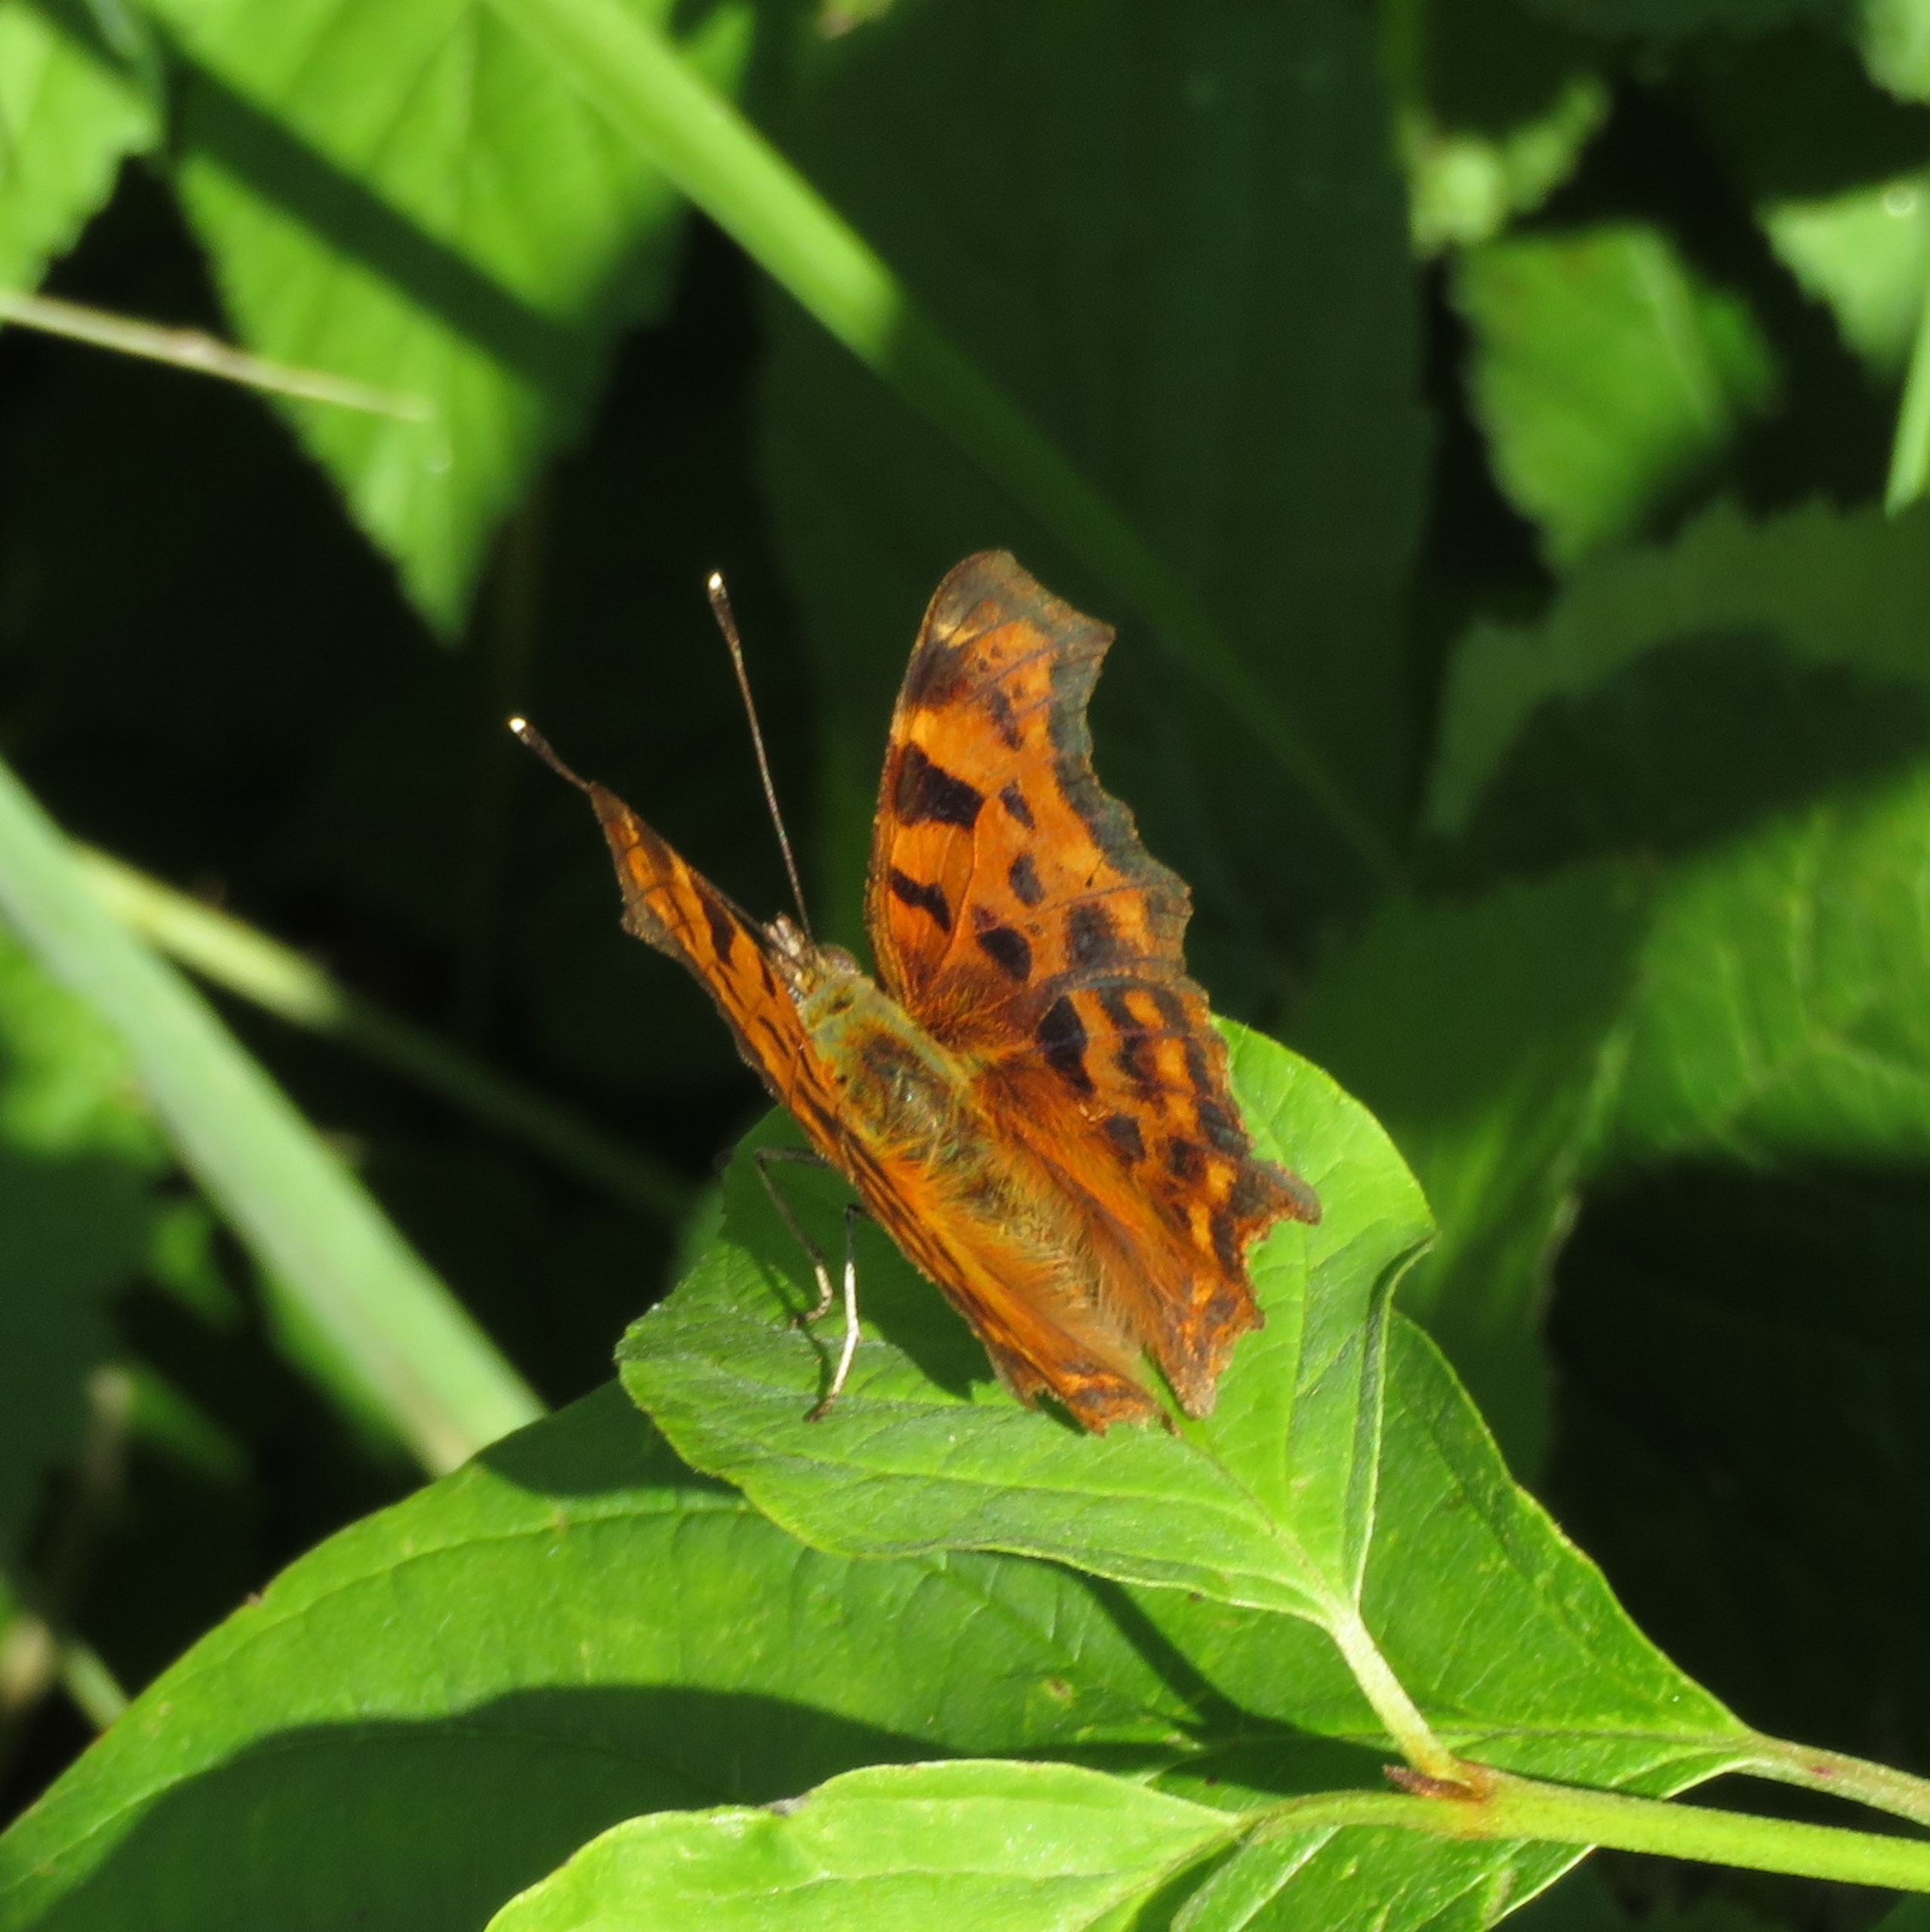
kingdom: Animalia
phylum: Arthropoda
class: Insecta
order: Lepidoptera
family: Nymphalidae
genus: Polygonia
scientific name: Polygonia c-album
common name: Det hvide C
